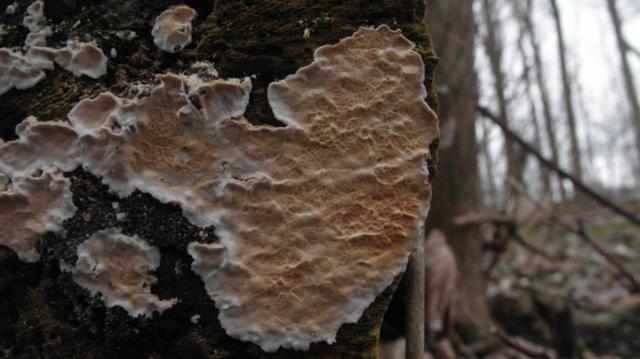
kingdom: Fungi
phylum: Basidiomycota
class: Agaricomycetes
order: Polyporales
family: Irpicaceae
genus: Byssomerulius
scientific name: Byssomerulius corium
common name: læder-åresvamp
